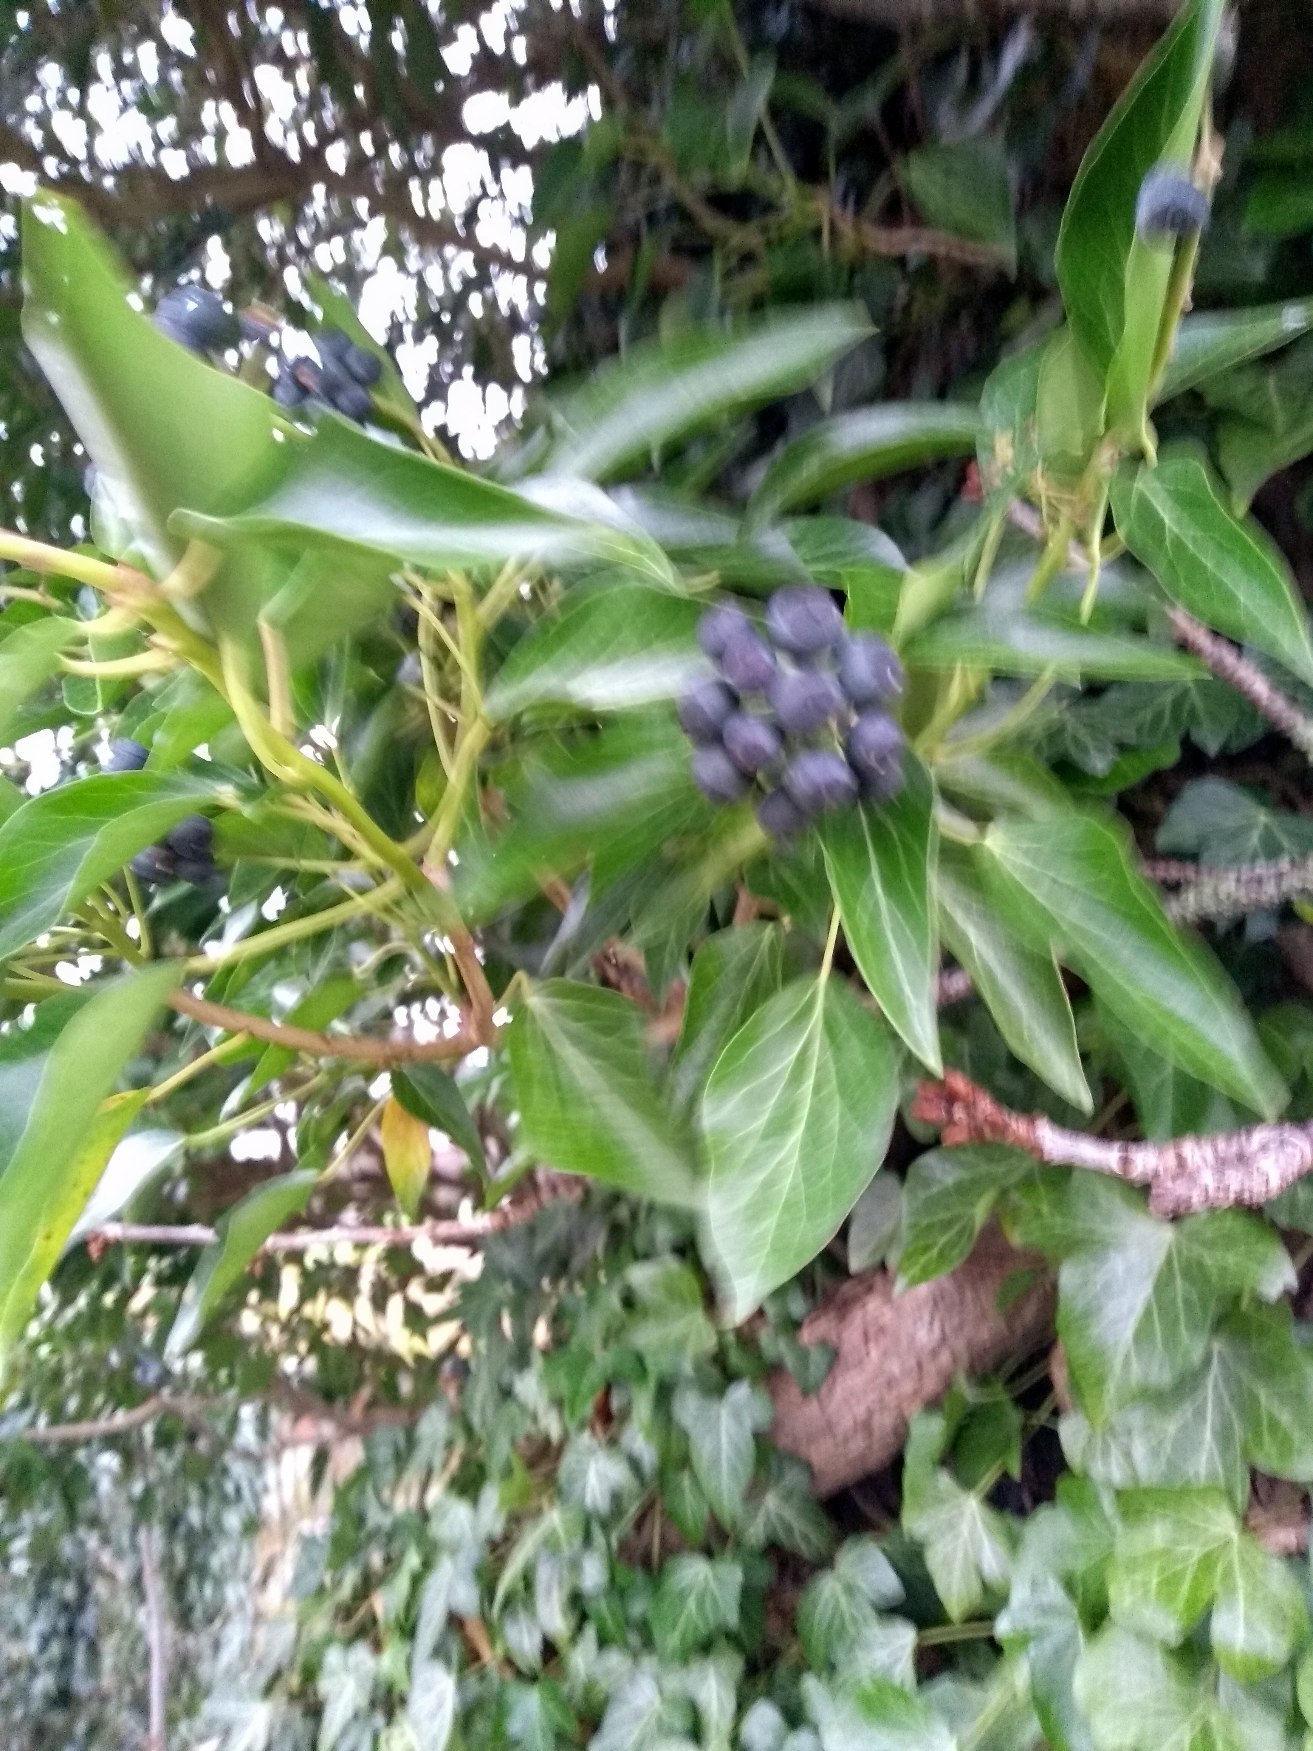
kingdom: Plantae
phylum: Tracheophyta
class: Magnoliopsida
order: Apiales
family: Araliaceae
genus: Hedera
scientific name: Hedera helix
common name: Vedbend
